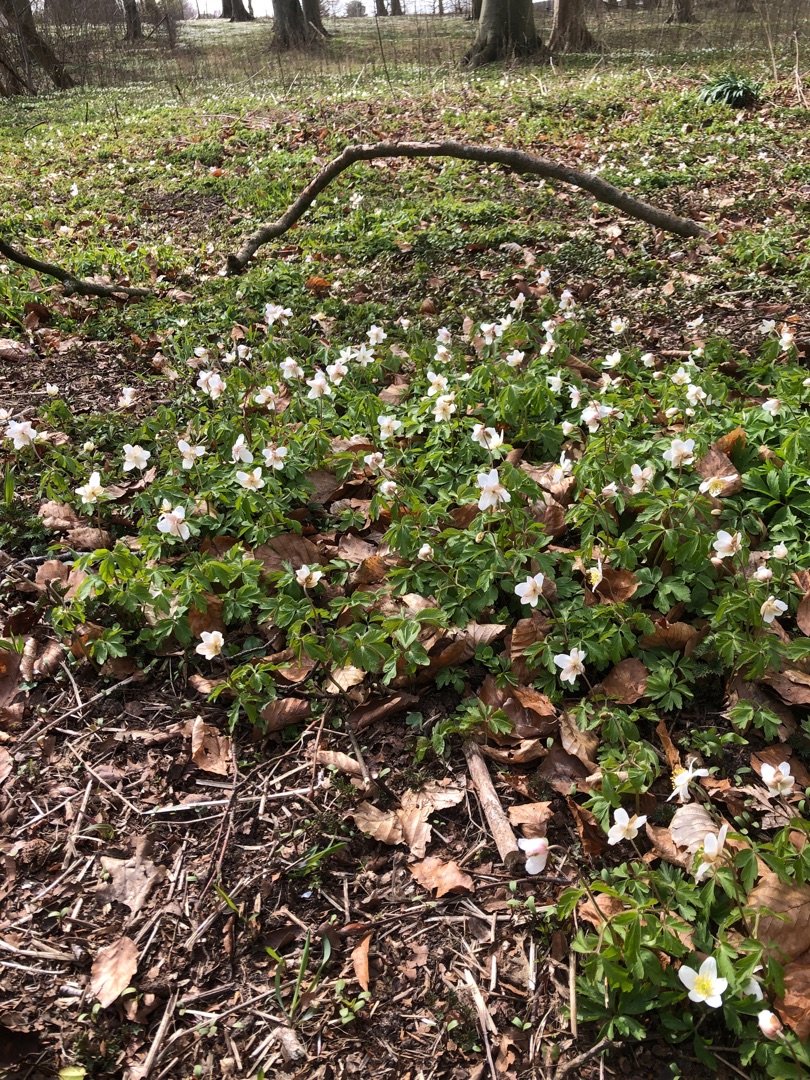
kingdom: Plantae
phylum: Tracheophyta
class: Magnoliopsida
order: Ranunculales
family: Ranunculaceae
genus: Anemone
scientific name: Anemone nemorosa
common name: Hvid anemone
